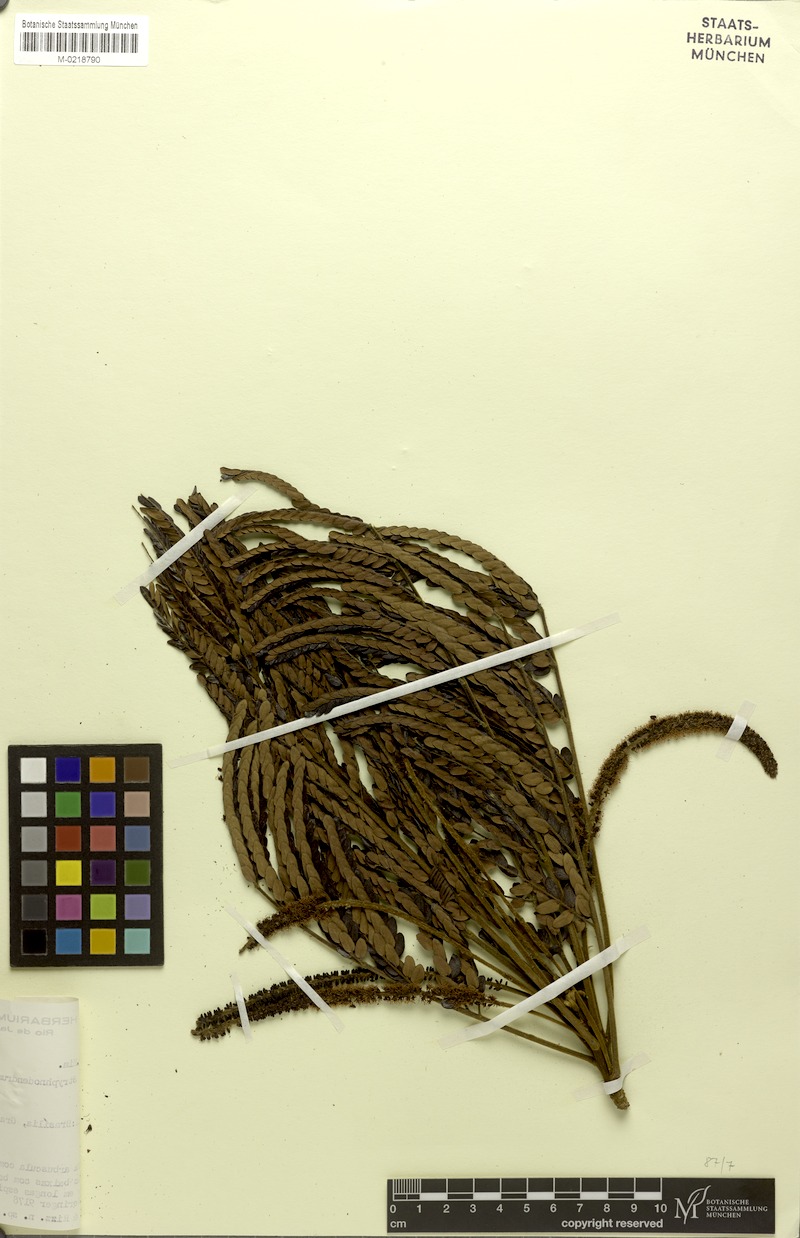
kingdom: Plantae
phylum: Tracheophyta
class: Magnoliopsida
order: Fabales
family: Fabaceae
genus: Stryphnodendron
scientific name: Stryphnodendron confertum
